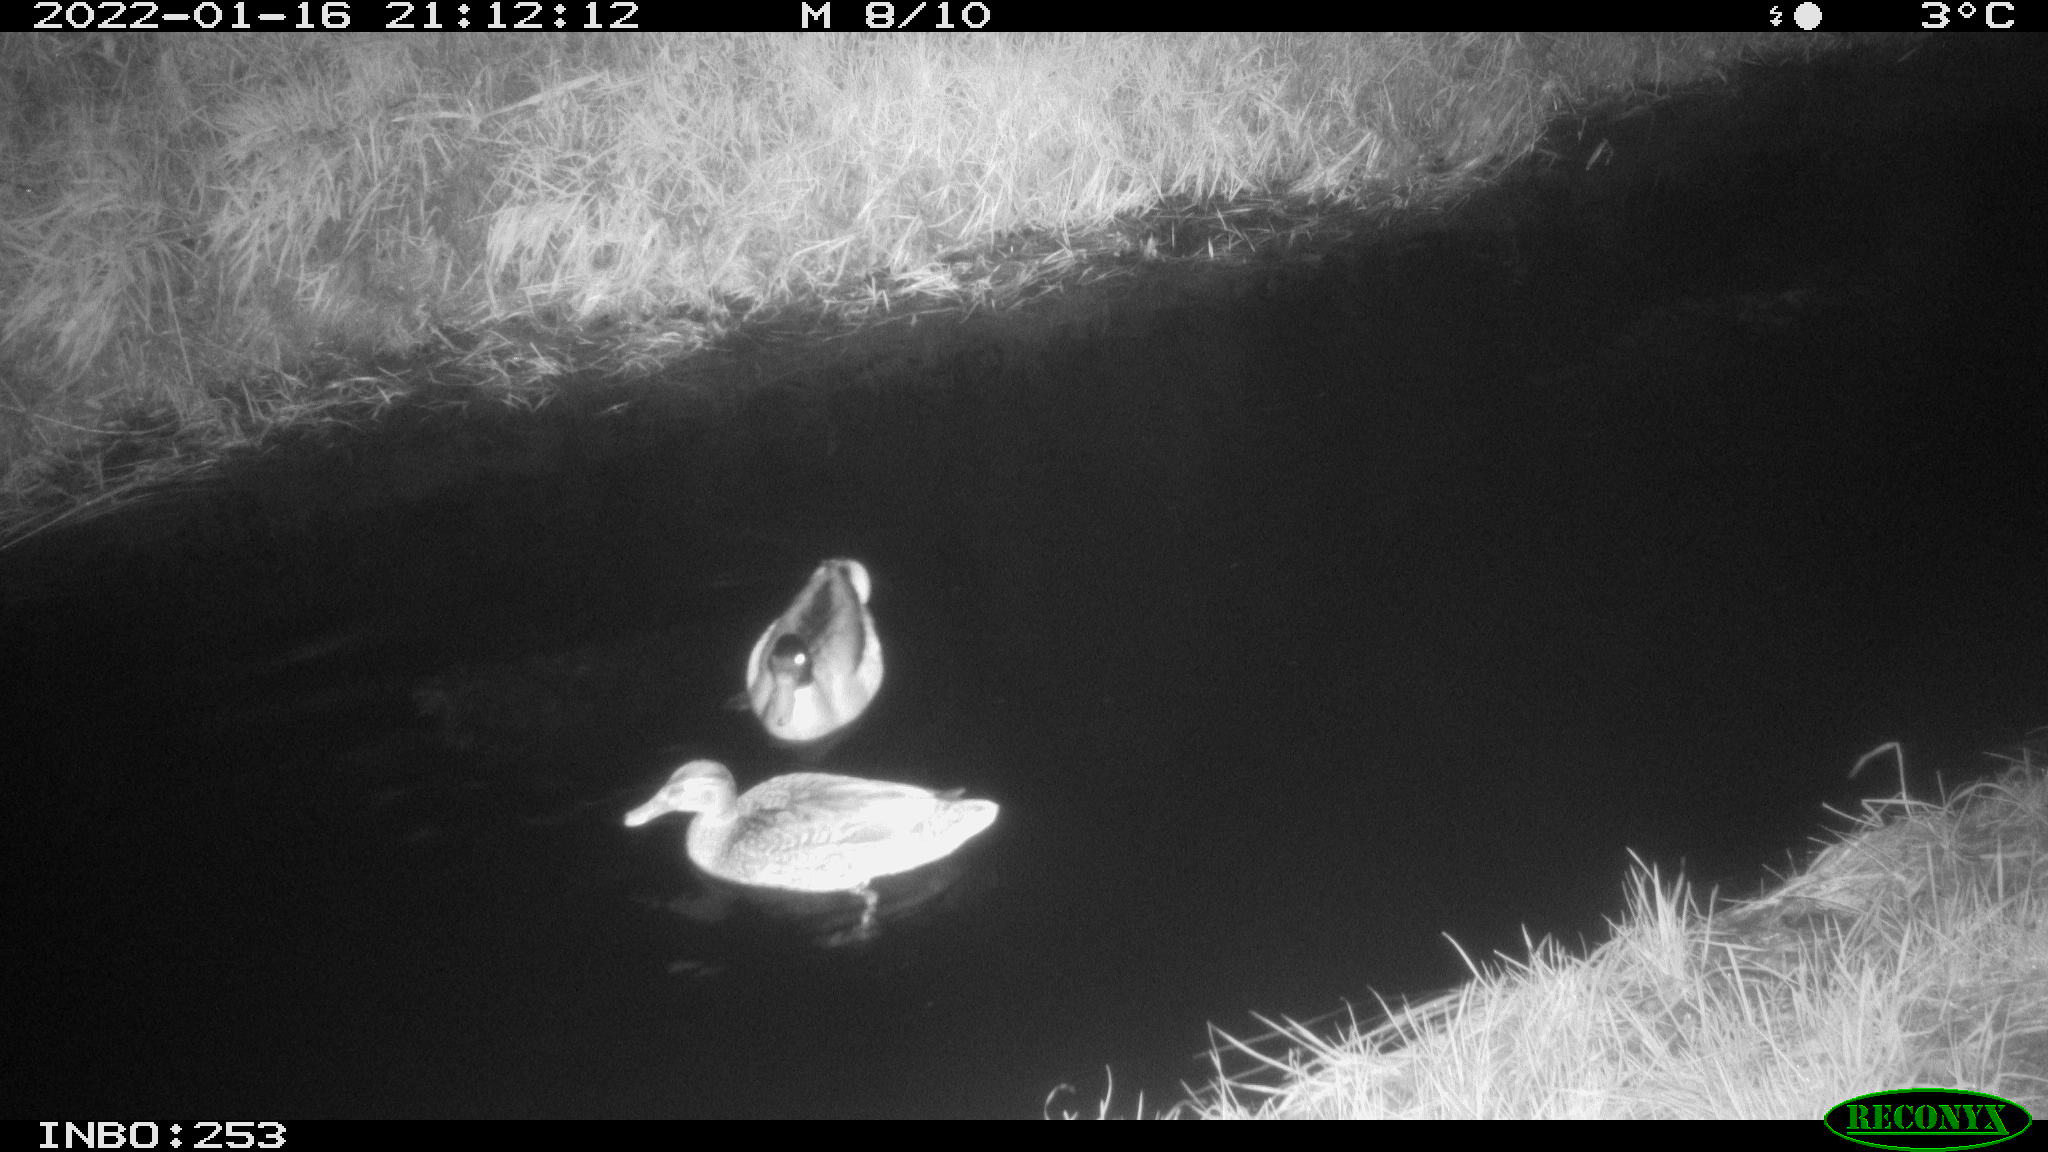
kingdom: Animalia
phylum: Chordata
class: Aves
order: Anseriformes
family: Anatidae
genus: Anas
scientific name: Anas
